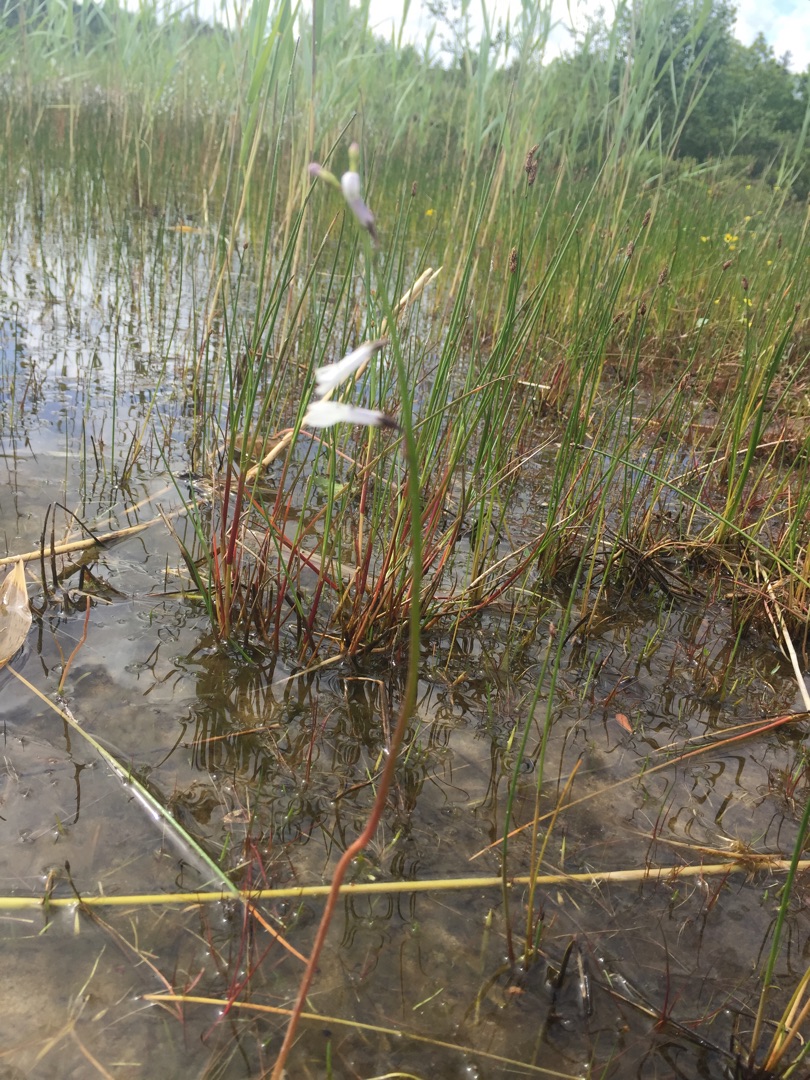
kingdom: Plantae
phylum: Tracheophyta
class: Magnoliopsida
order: Asterales
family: Campanulaceae
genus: Lobelia
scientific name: Lobelia dortmanna
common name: Tvepibet lobelie
